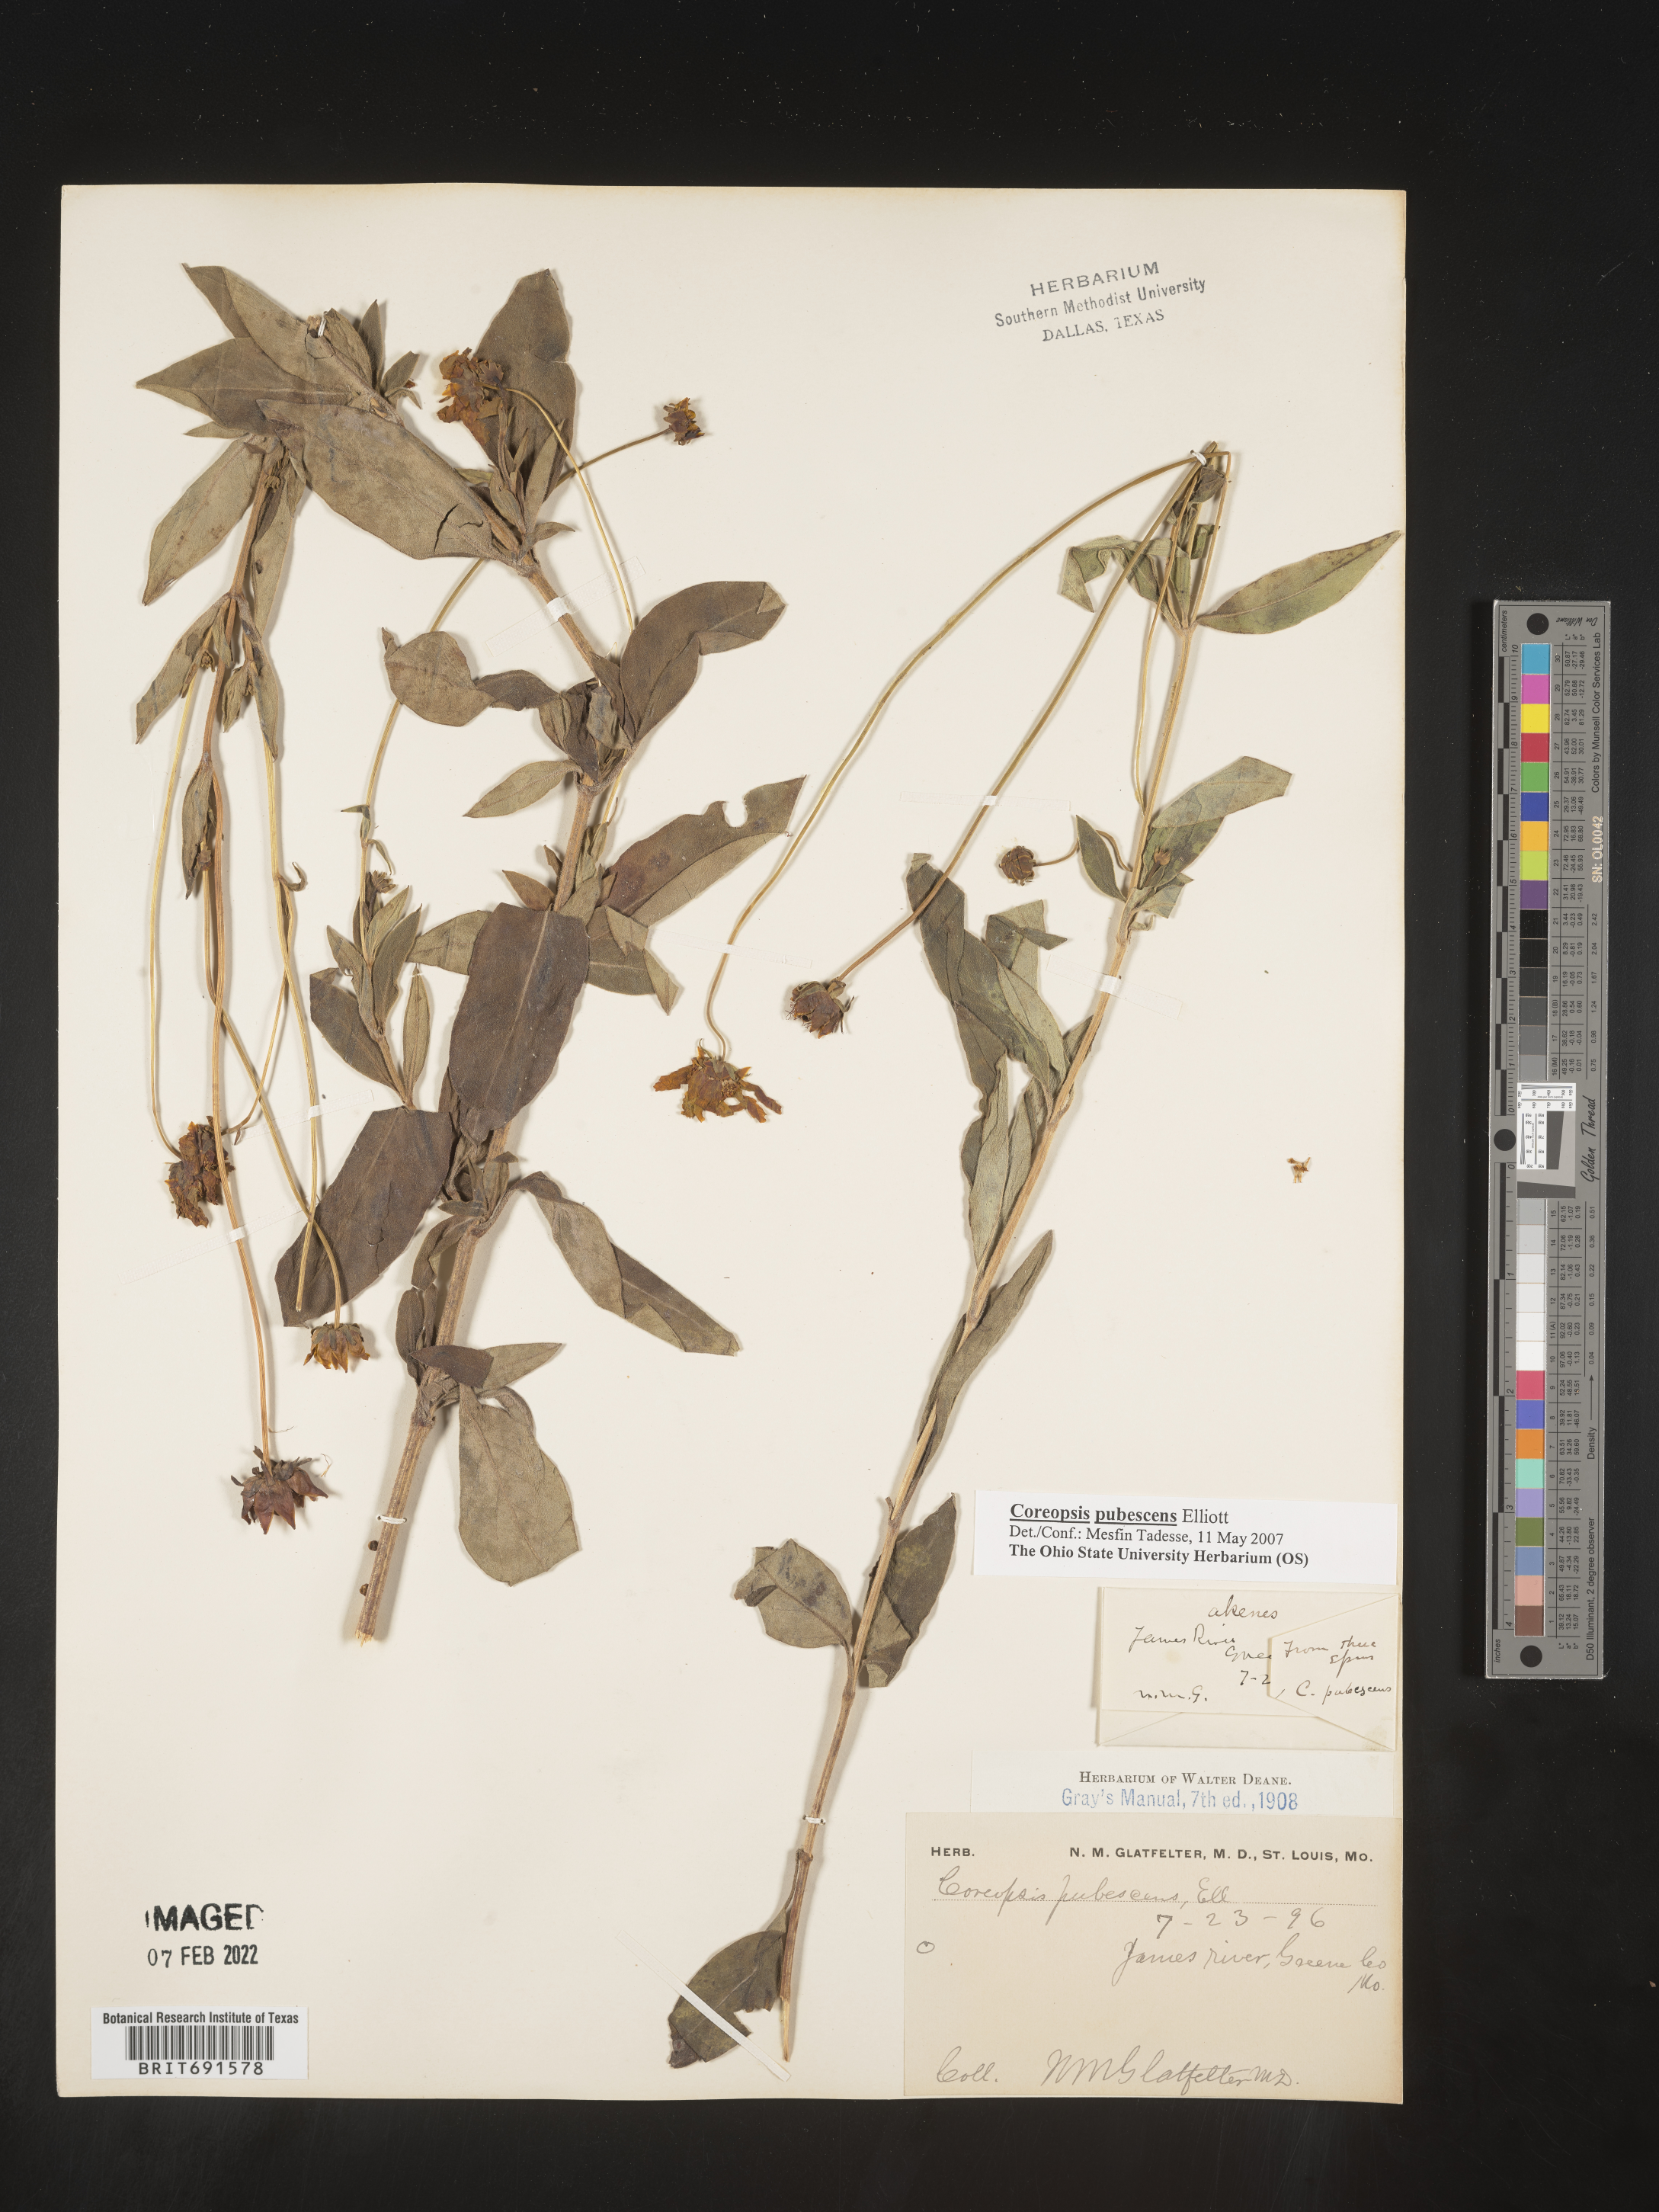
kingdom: Plantae
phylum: Tracheophyta
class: Magnoliopsida
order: Asterales
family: Asteraceae
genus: Coreopsis
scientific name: Coreopsis pubescens
